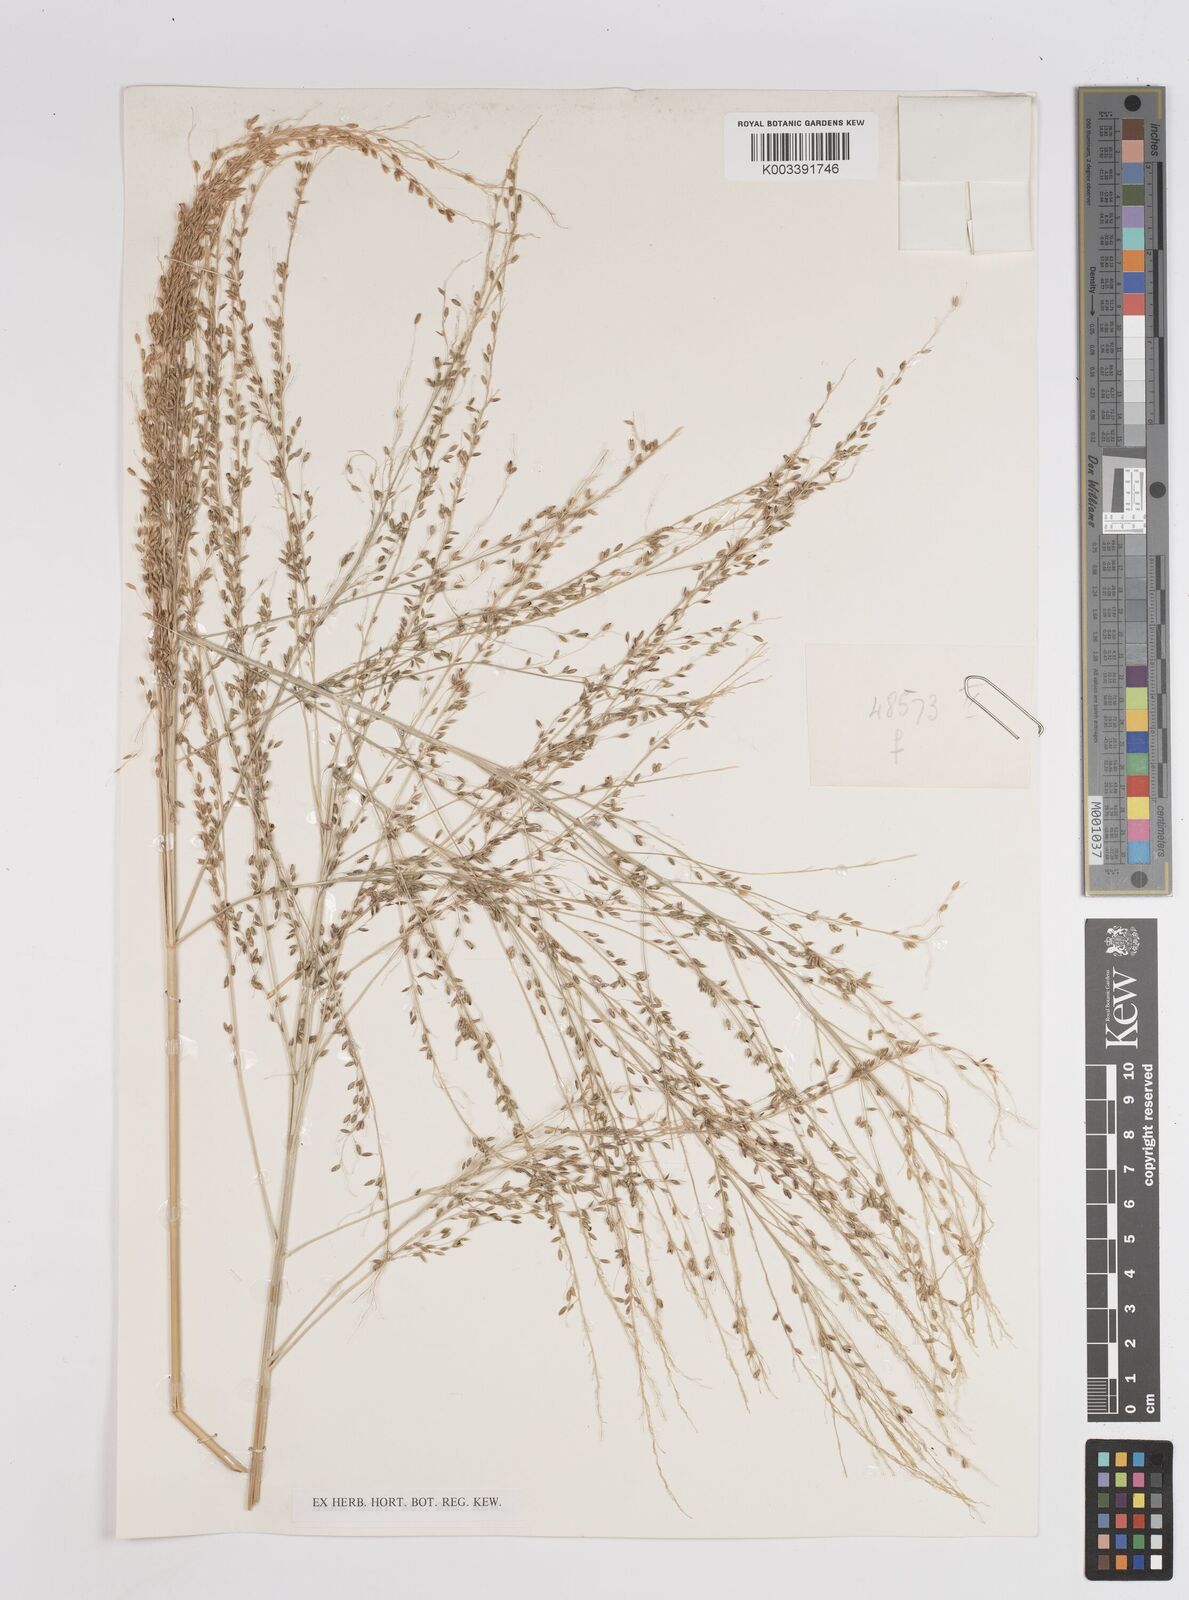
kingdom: Plantae
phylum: Tracheophyta
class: Liliopsida
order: Poales
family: Poaceae
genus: Megathyrsus
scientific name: Megathyrsus maximus
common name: Guineagrass
